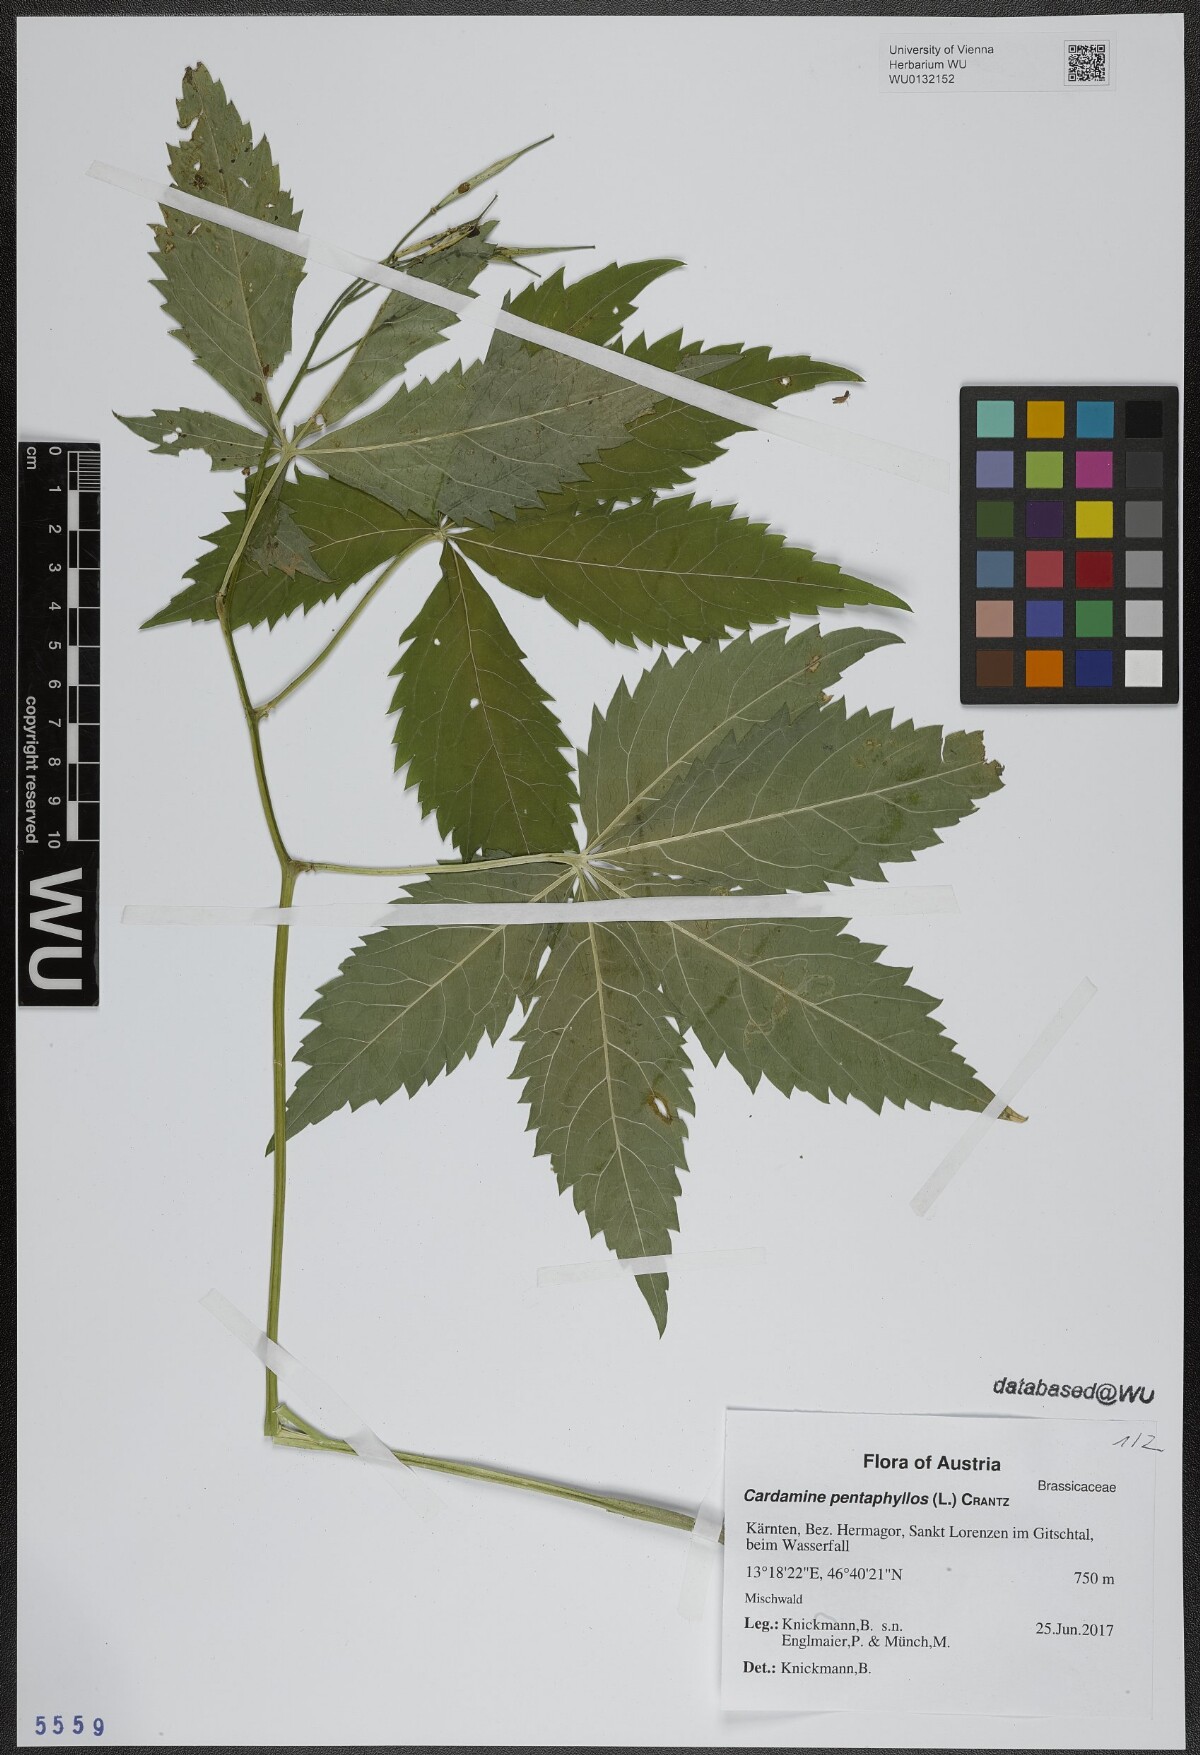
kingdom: Plantae
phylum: Tracheophyta
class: Magnoliopsida
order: Brassicales
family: Brassicaceae
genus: Cardamine
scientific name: Cardamine pentaphyllos
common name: Five-leaflet bitter-cress
